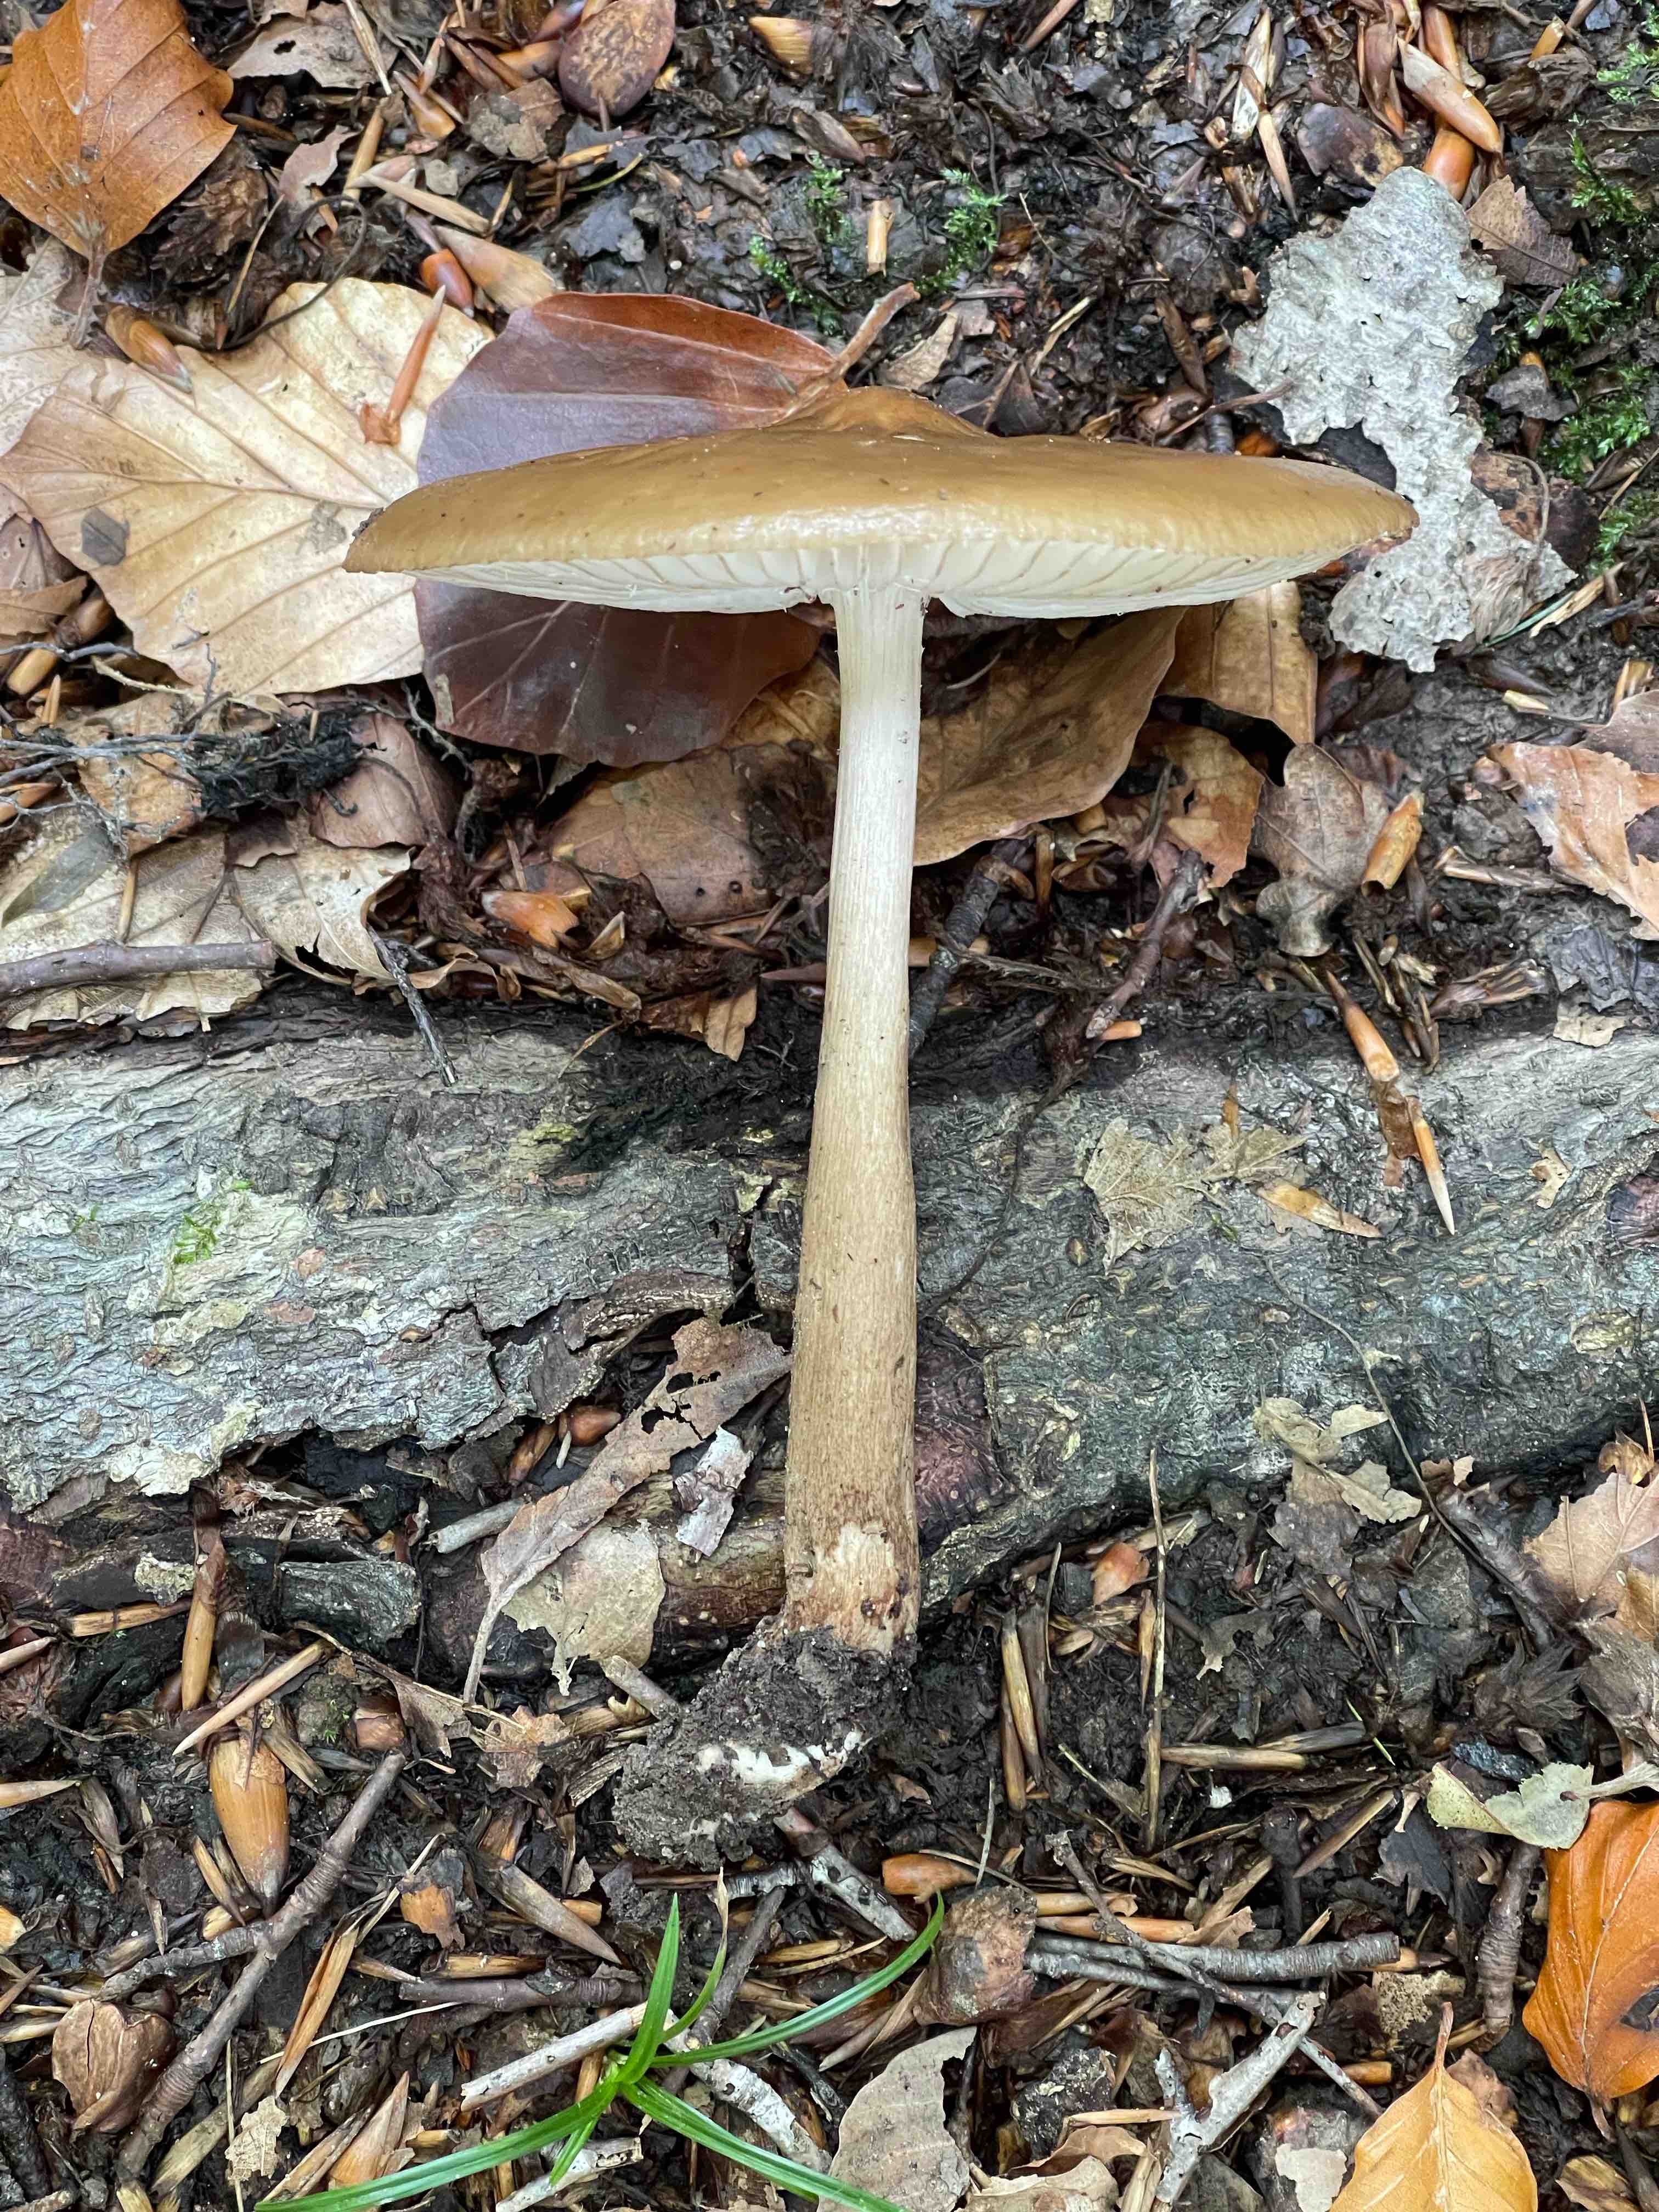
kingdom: Fungi
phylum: Basidiomycota
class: Agaricomycetes
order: Agaricales
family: Physalacriaceae
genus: Hymenopellis
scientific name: Hymenopellis radicata
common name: almindelig pælerodshat
